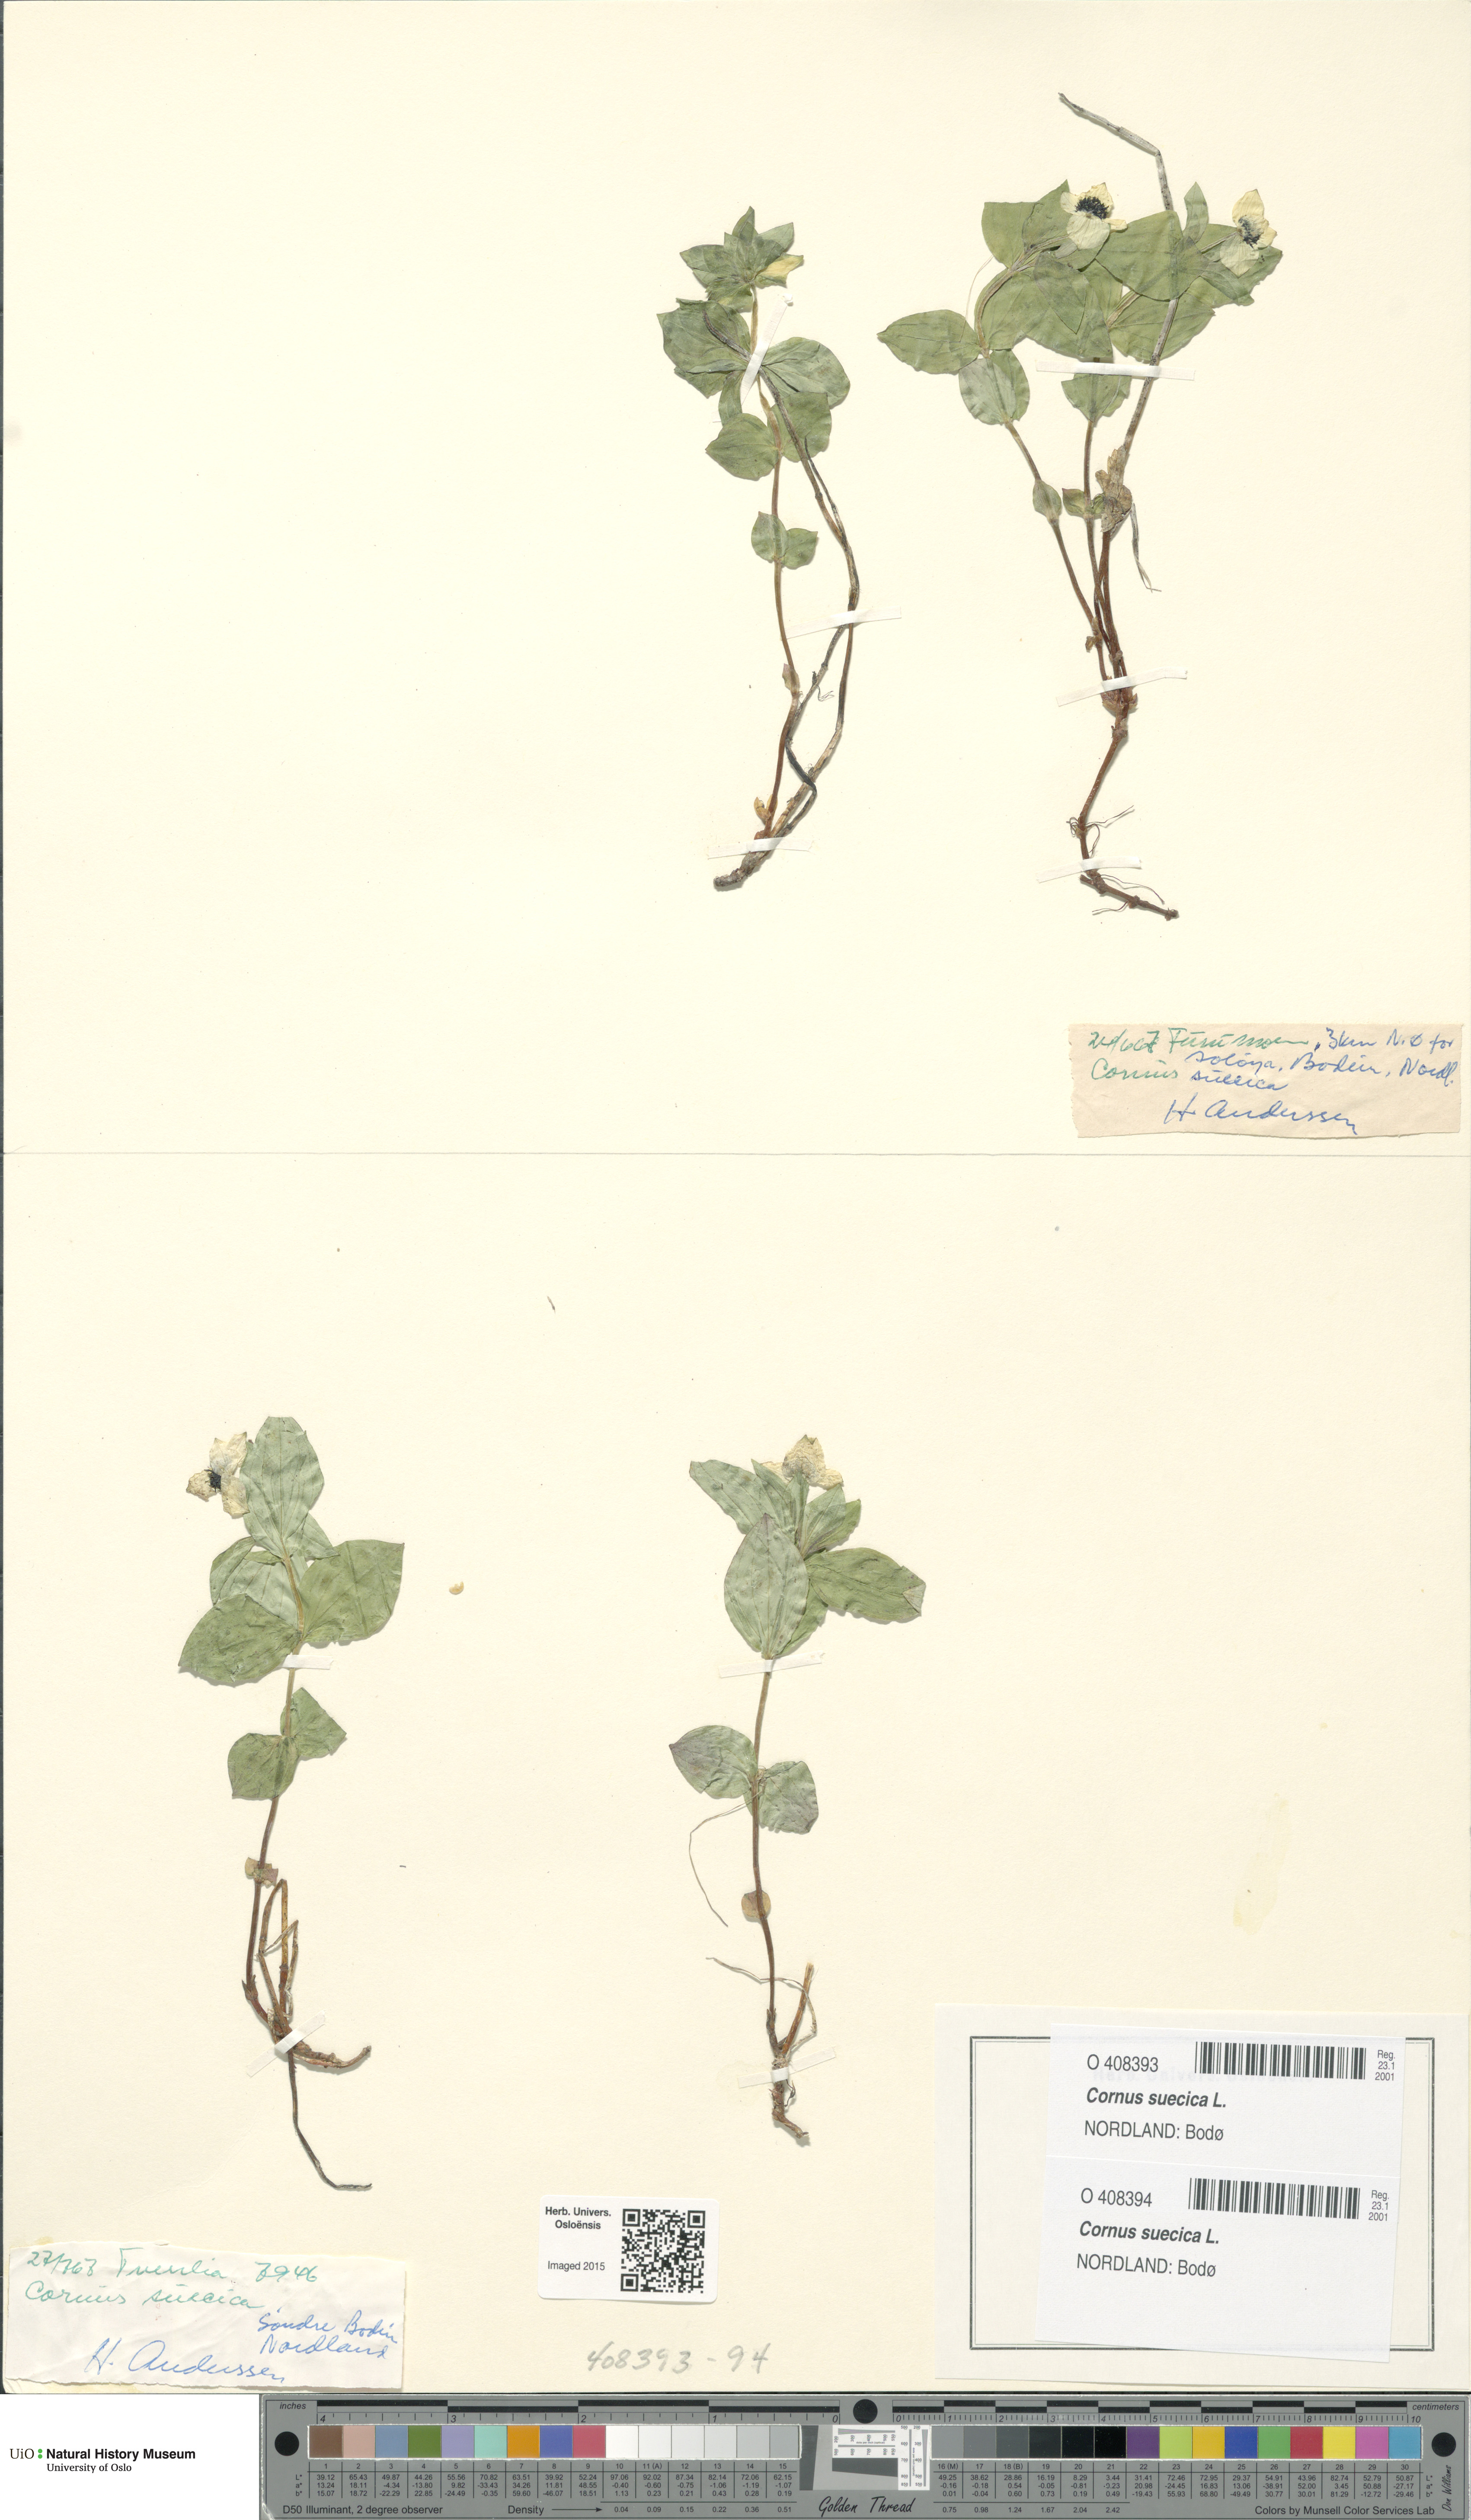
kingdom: Plantae
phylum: Tracheophyta
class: Magnoliopsida
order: Cornales
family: Cornaceae
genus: Cornus
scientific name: Cornus suecica
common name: Dwarf cornel
